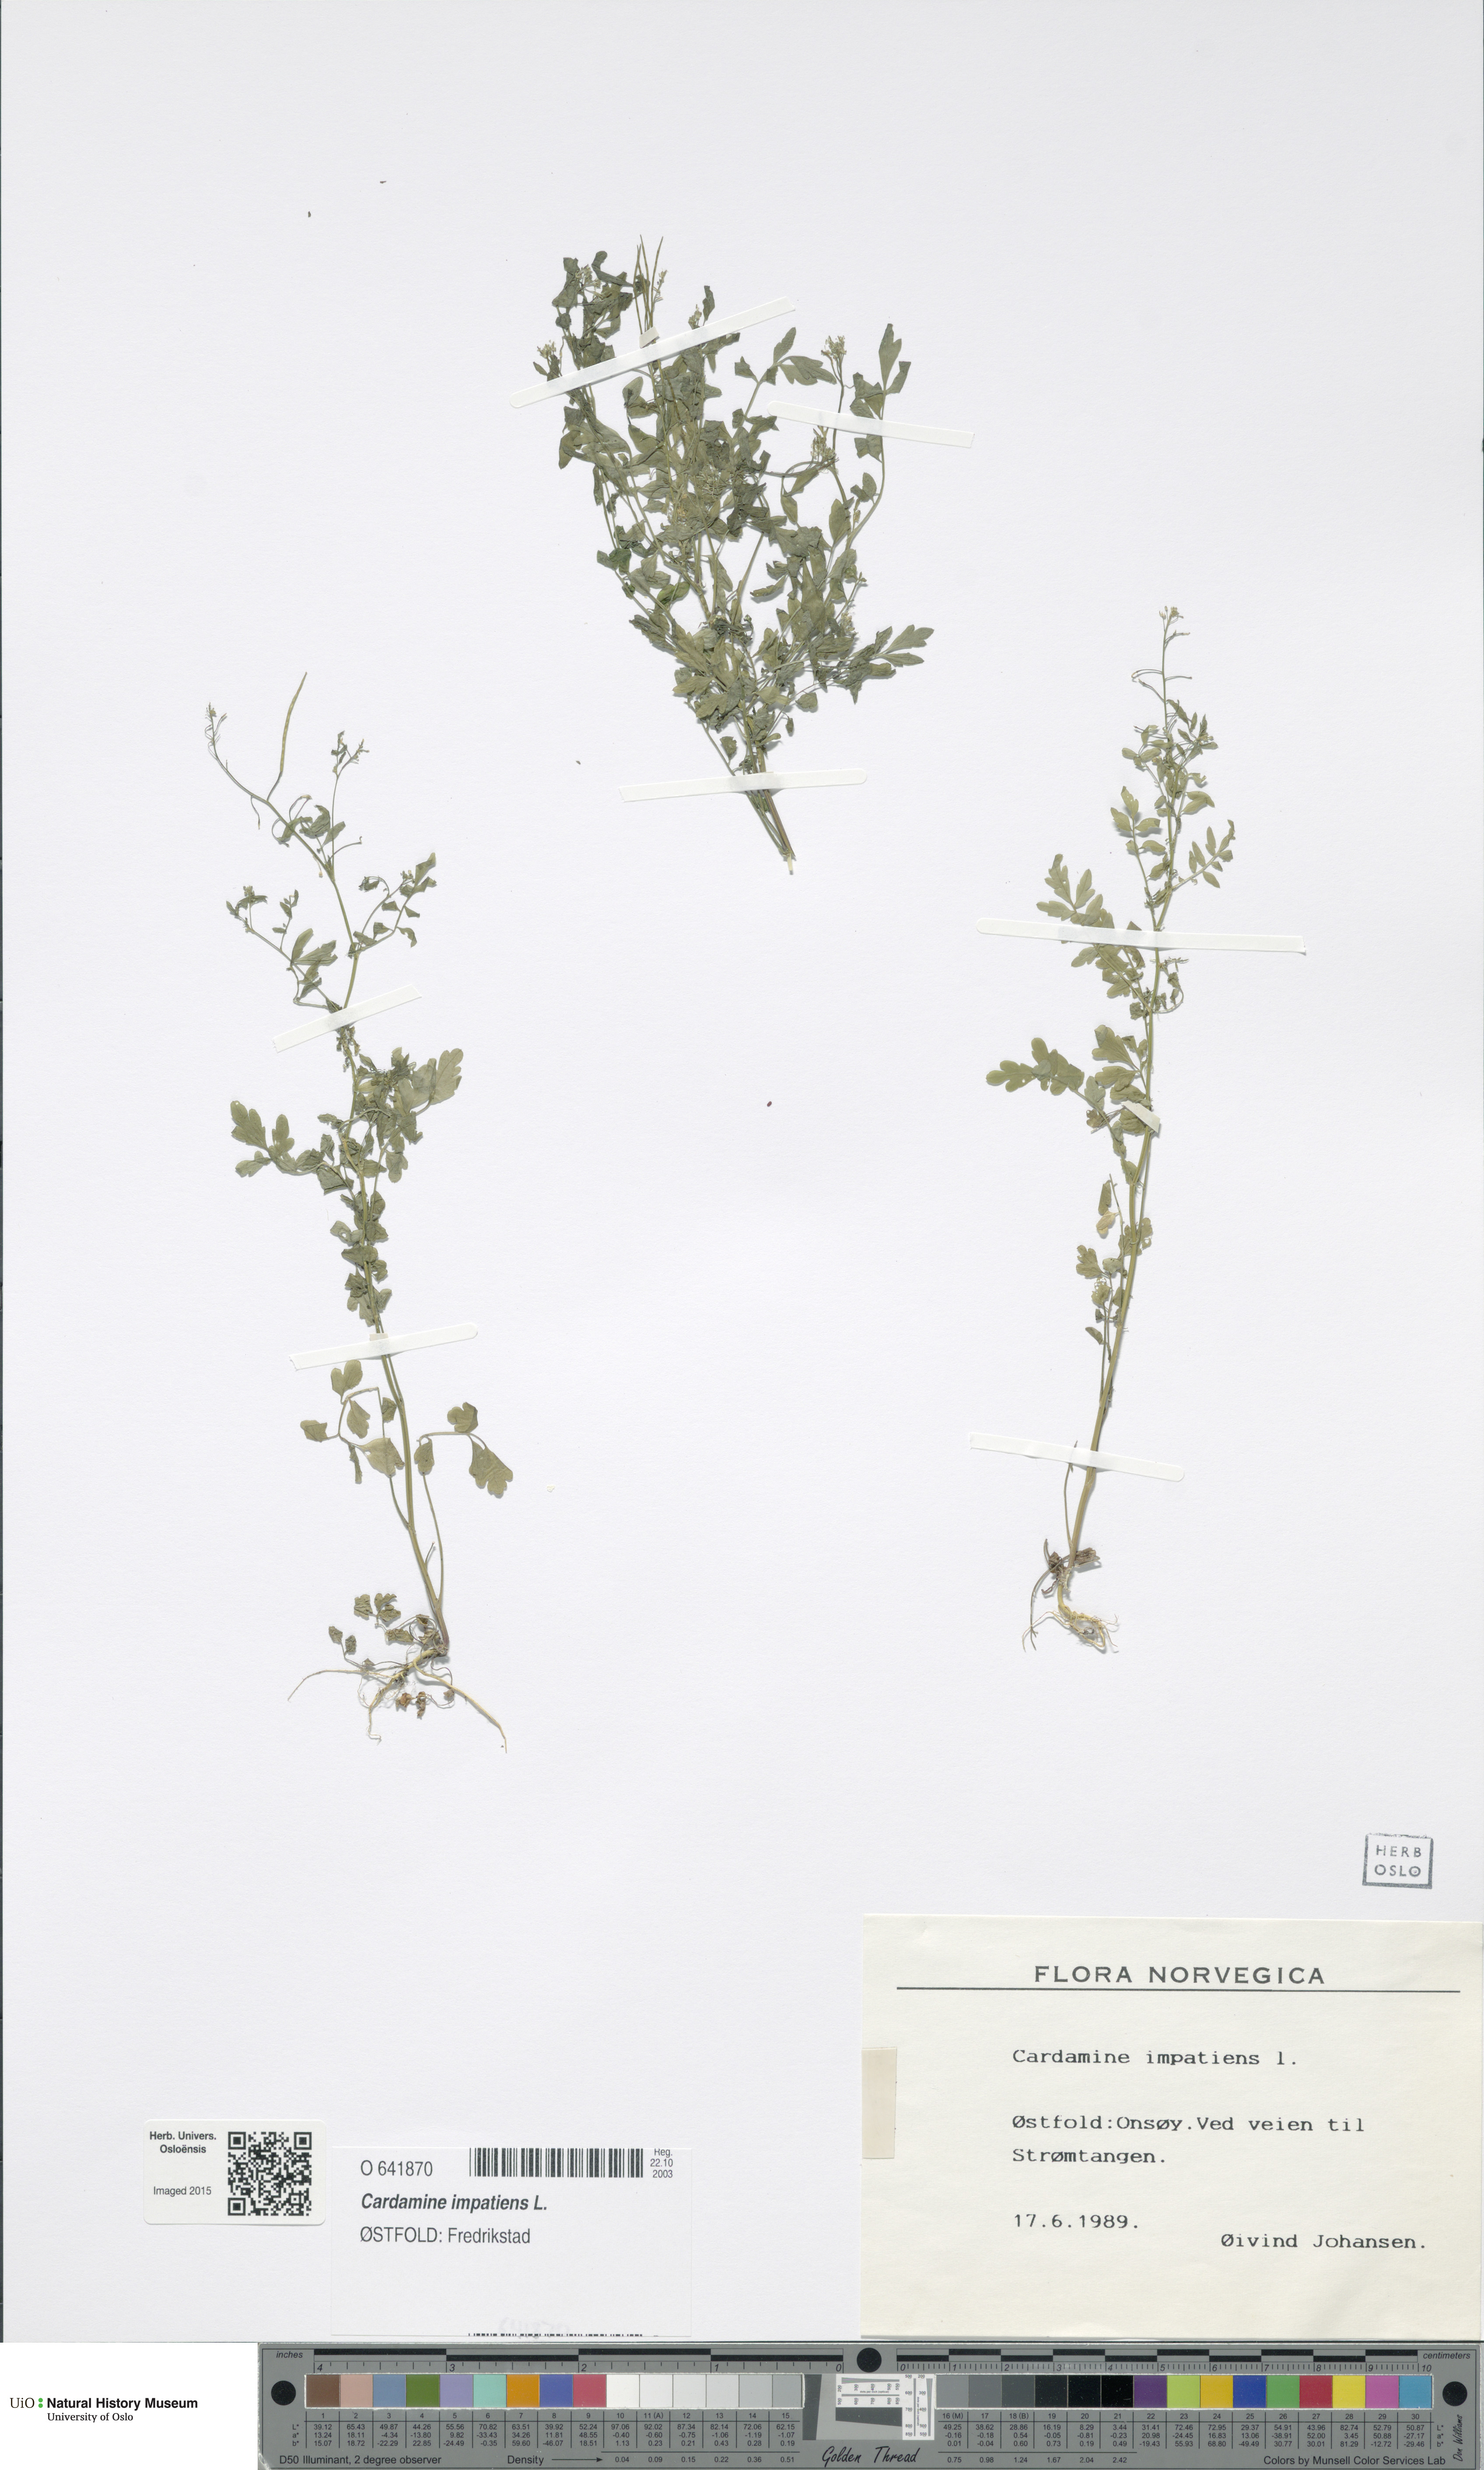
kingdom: Plantae
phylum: Tracheophyta
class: Magnoliopsida
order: Brassicales
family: Brassicaceae
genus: Cardamine
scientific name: Cardamine impatiens
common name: Narrow-leaved bitter-cress
